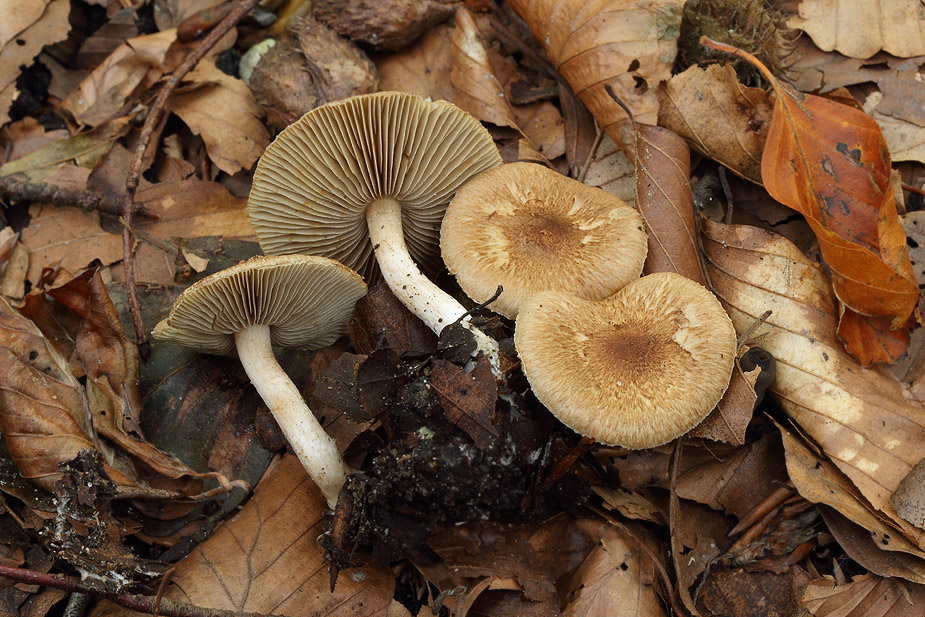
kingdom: Fungi
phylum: Basidiomycota
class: Agaricomycetes
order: Agaricales
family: Inocybaceae
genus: Inocybe
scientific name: Inocybe
